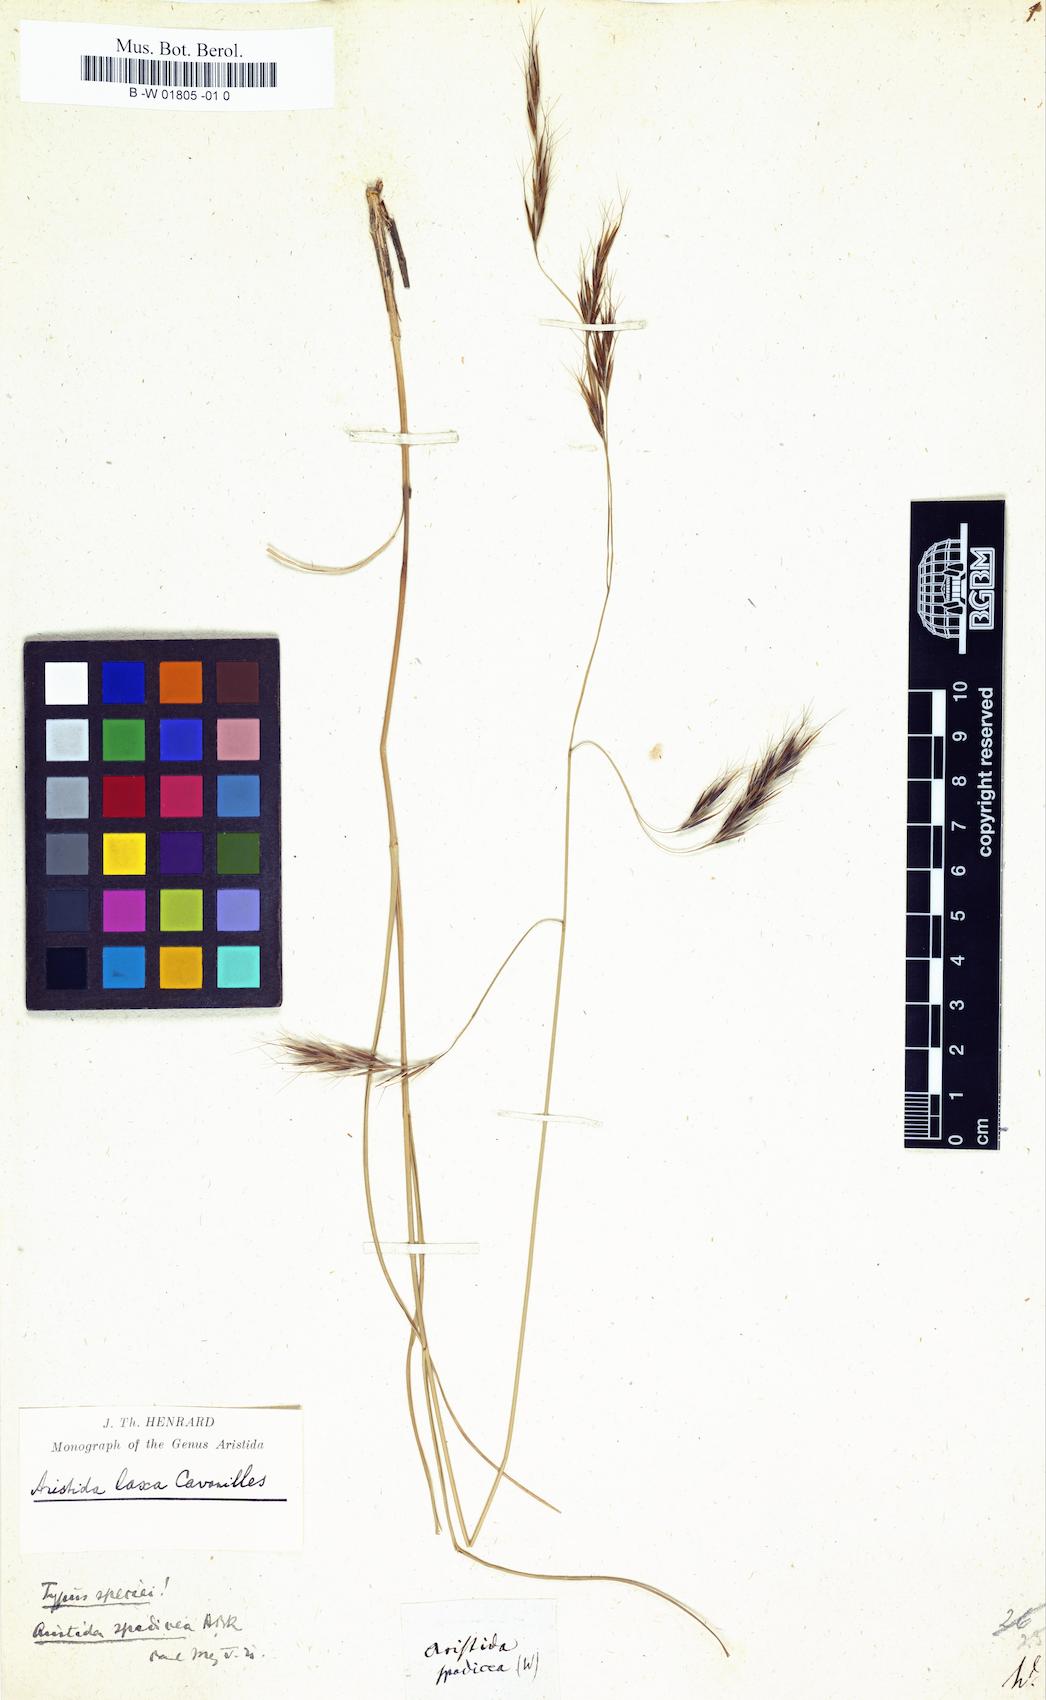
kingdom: Plantae
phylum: Tracheophyta
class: Liliopsida
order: Poales
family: Poaceae
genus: Aristida
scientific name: Aristida laxa
